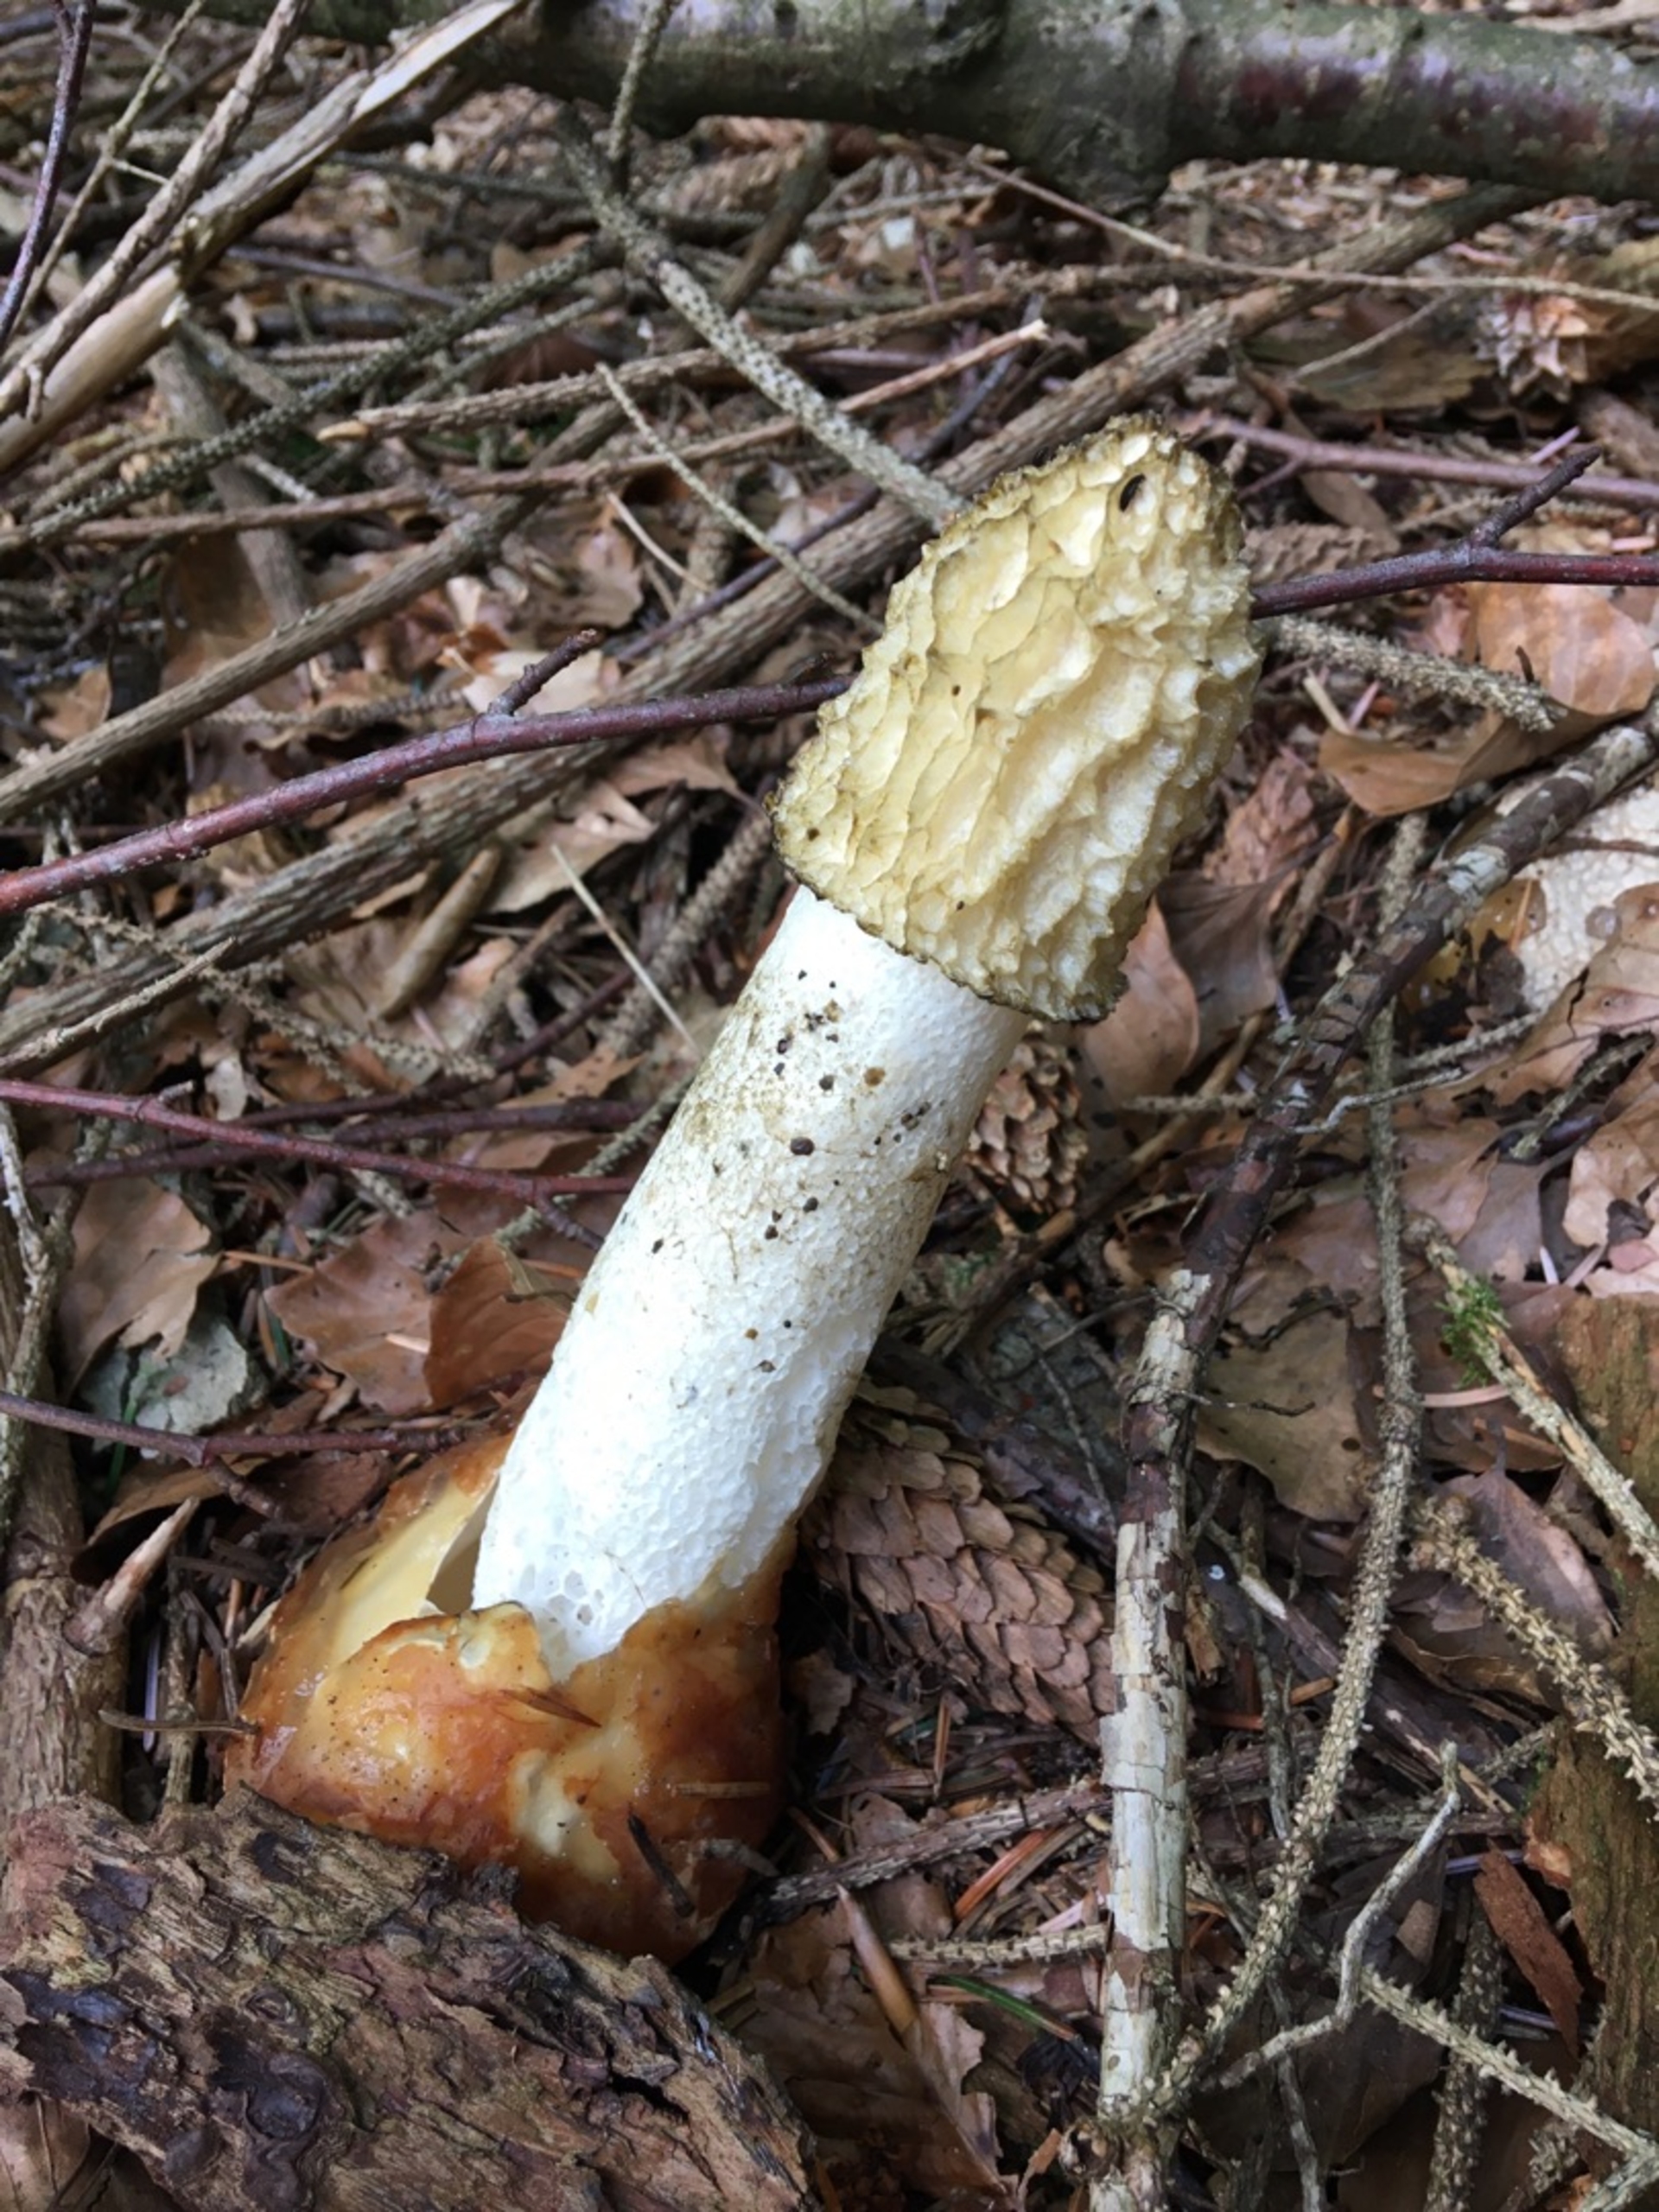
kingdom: Fungi
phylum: Basidiomycota
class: Agaricomycetes
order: Phallales
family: Phallaceae
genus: Phallus
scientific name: Phallus impudicus
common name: Almindelig stinksvamp
